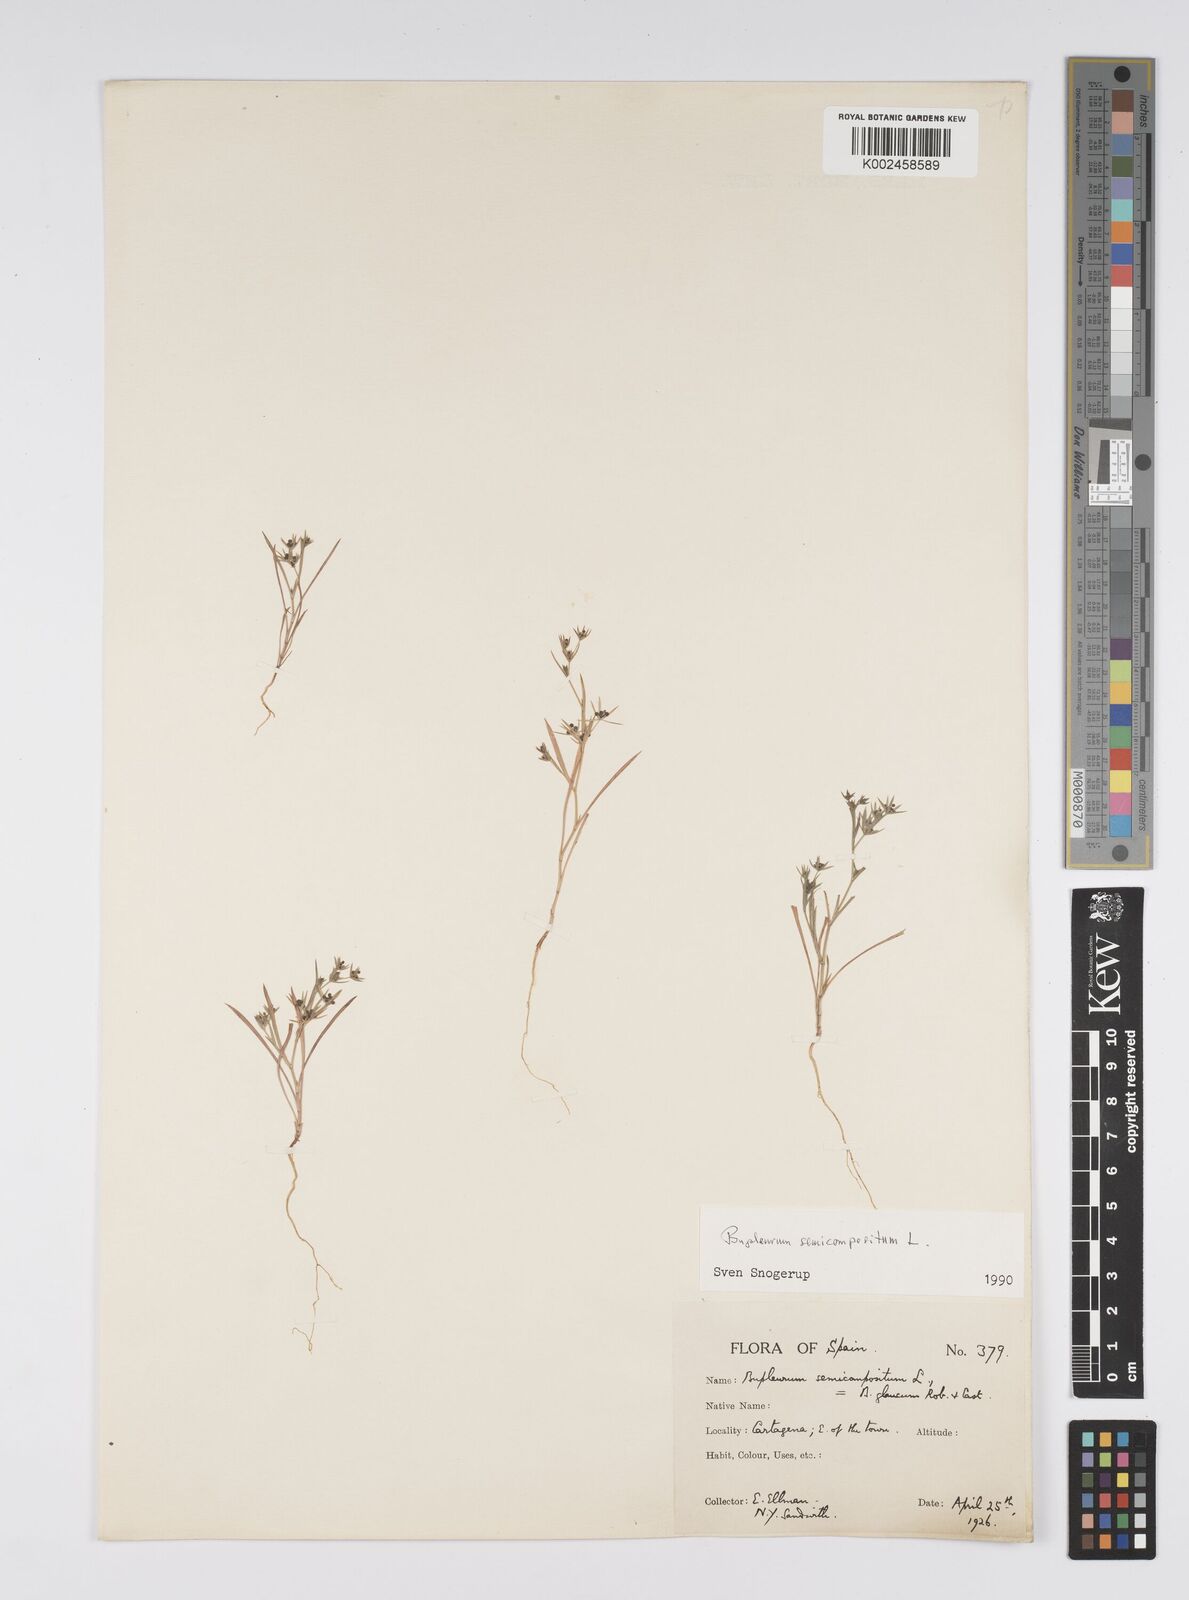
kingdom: Plantae
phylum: Tracheophyta
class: Magnoliopsida
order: Apiales
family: Apiaceae
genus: Bupleurum
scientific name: Bupleurum semicompositum
